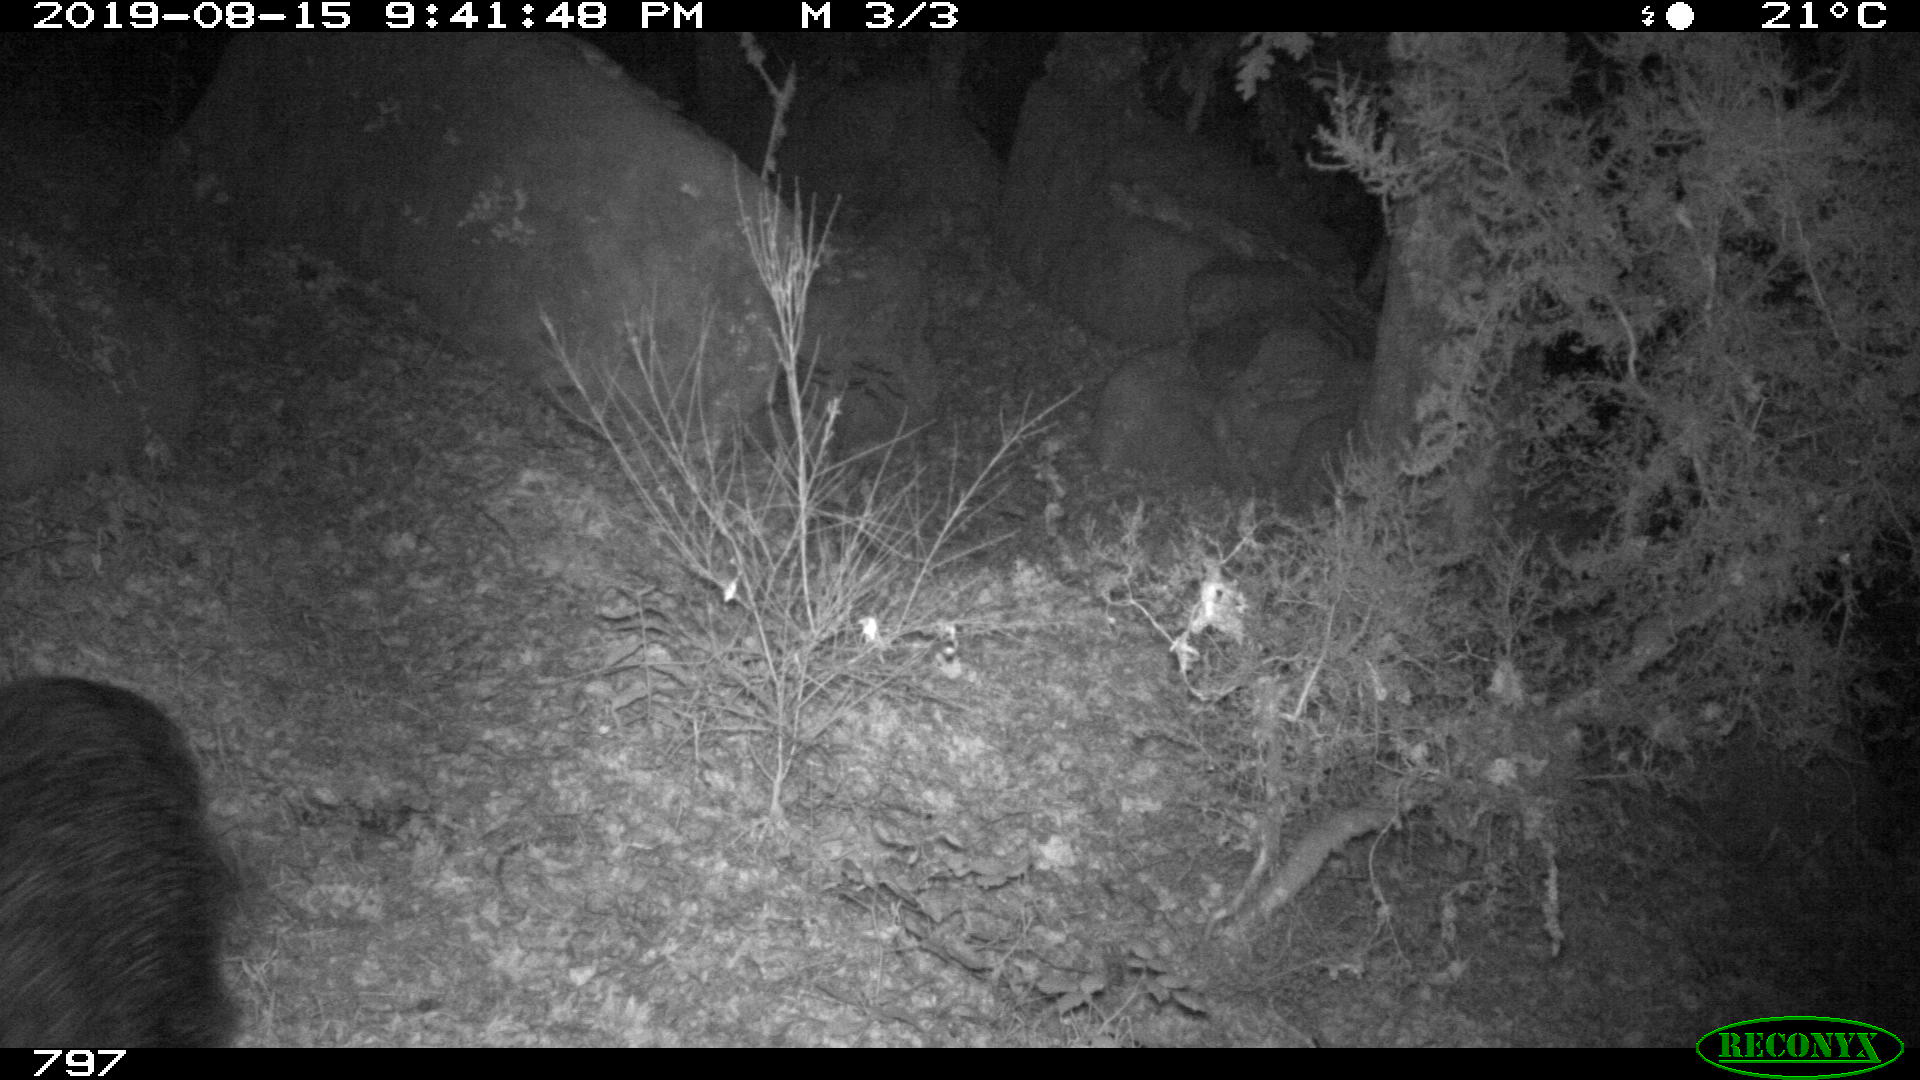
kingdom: Animalia
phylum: Chordata
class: Mammalia
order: Artiodactyla
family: Suidae
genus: Sus
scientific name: Sus scrofa
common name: Wild boar
